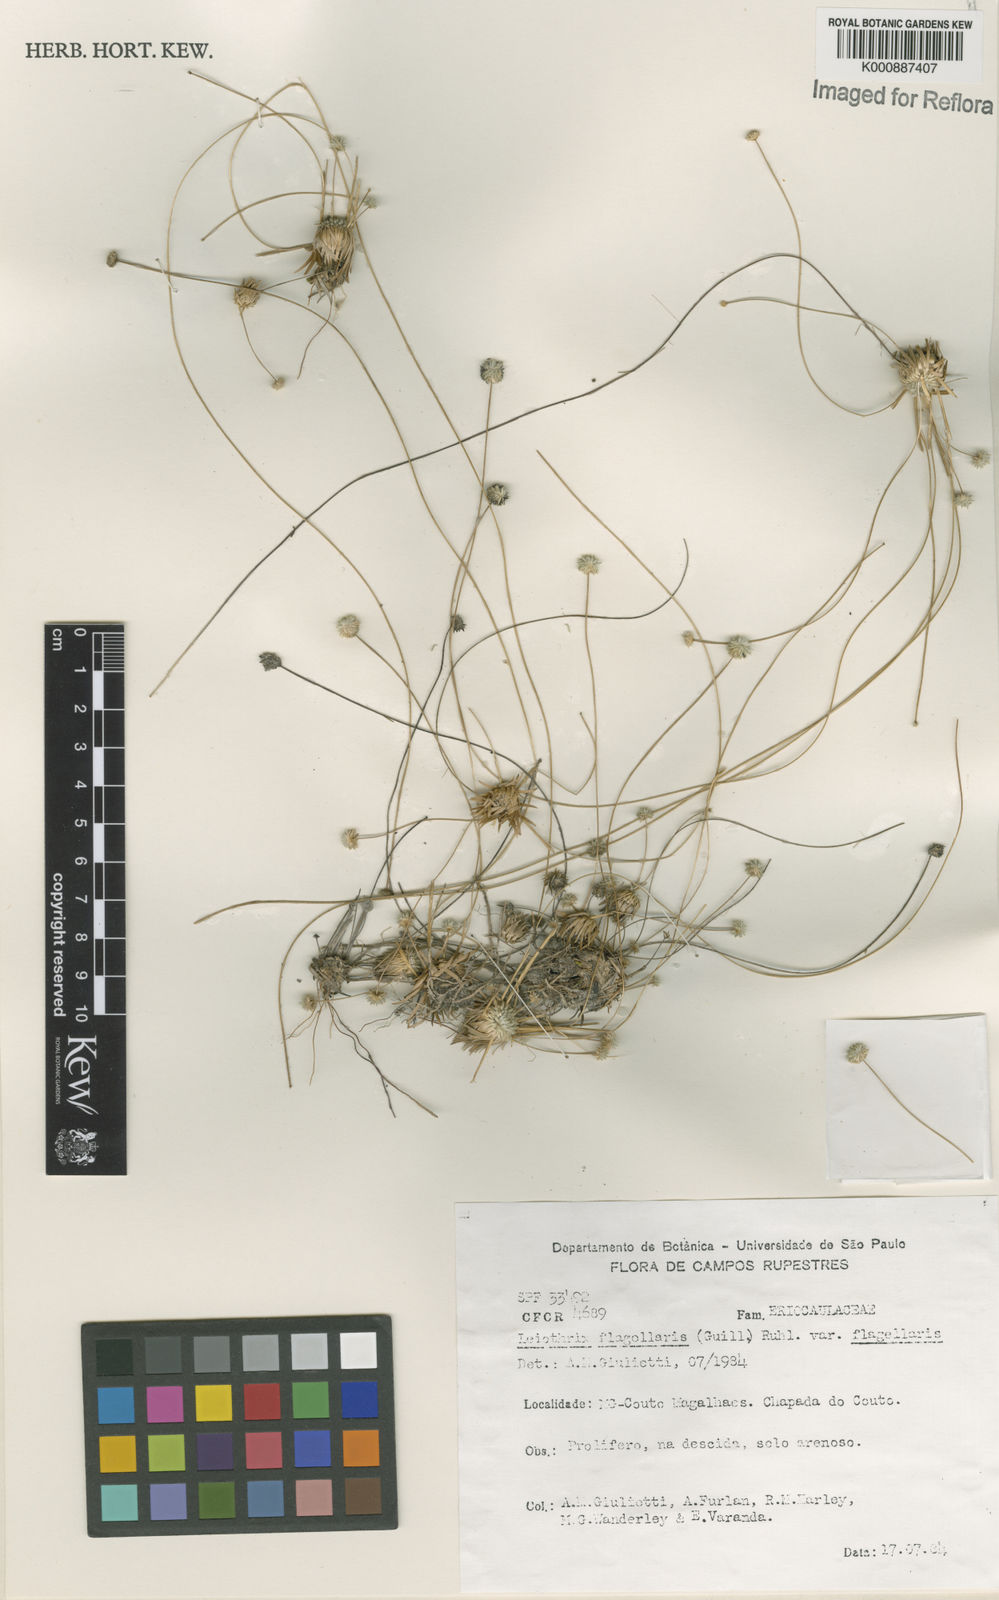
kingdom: Plantae
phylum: Tracheophyta
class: Liliopsida
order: Poales
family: Eriocaulaceae
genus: Leiothrix
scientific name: Leiothrix flagellaris
